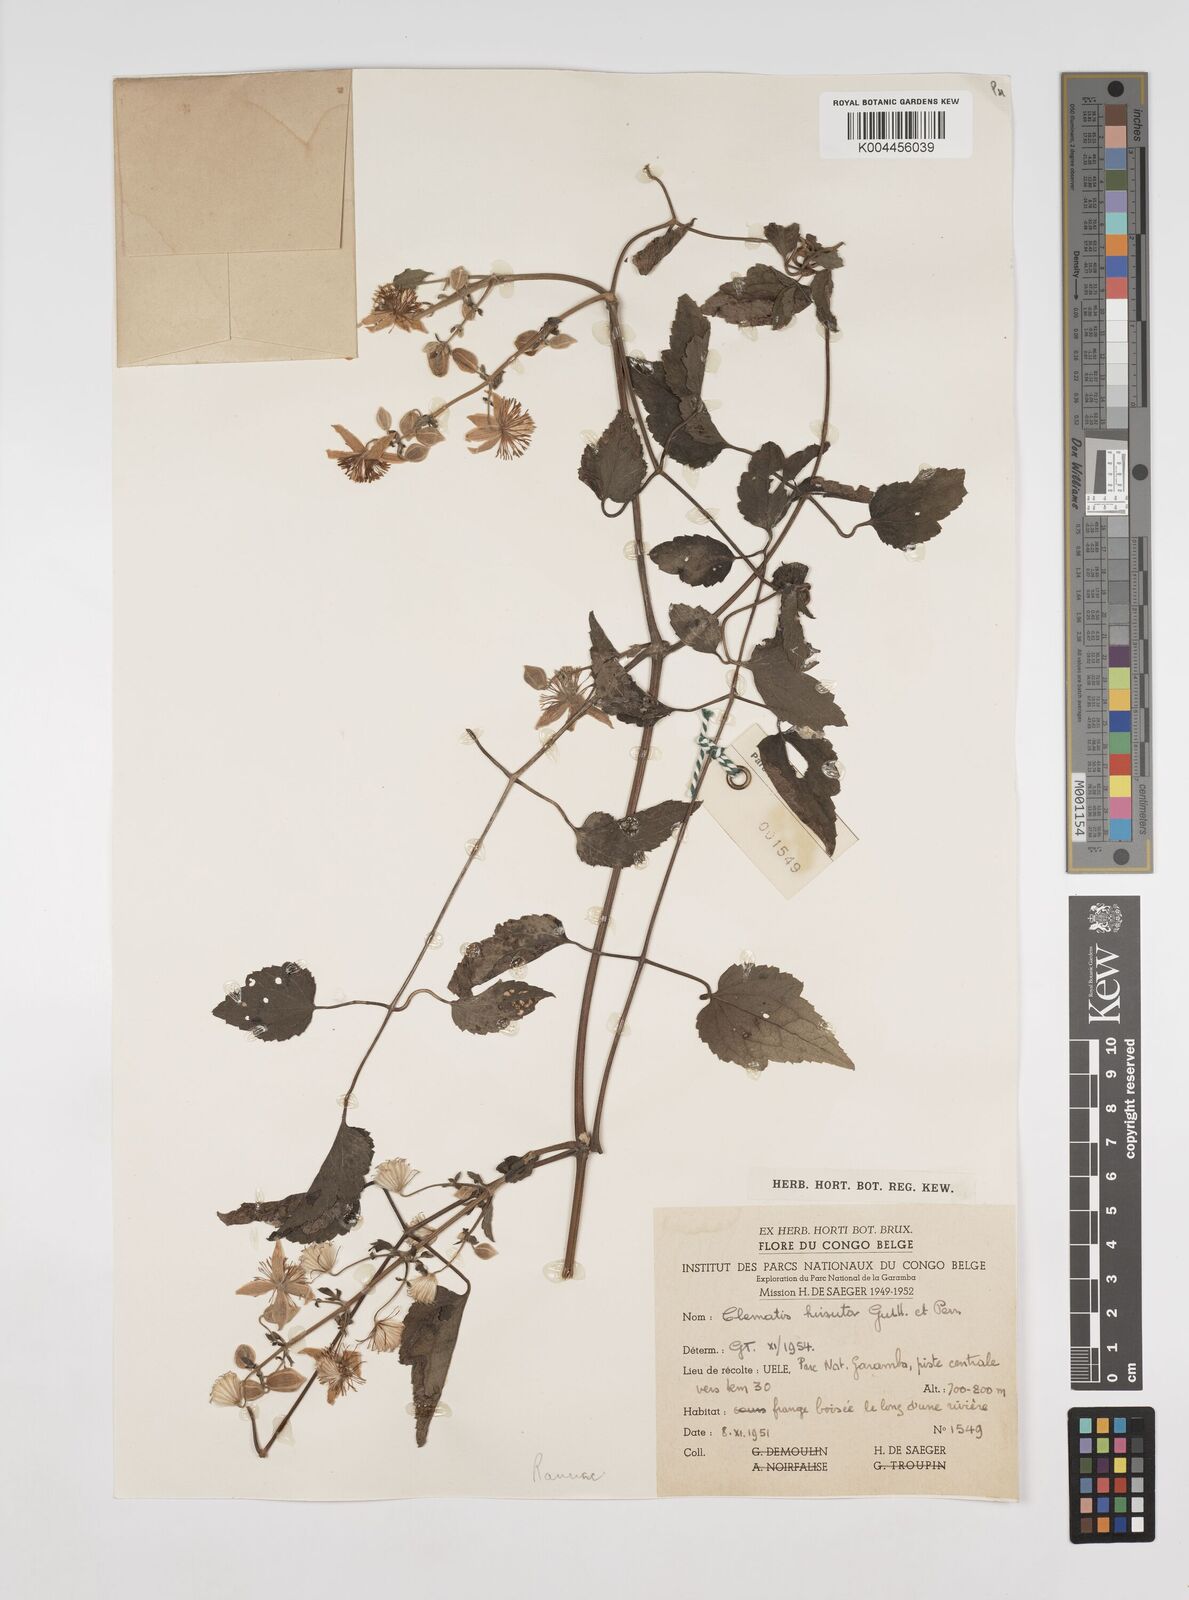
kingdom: Plantae
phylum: Tracheophyta
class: Magnoliopsida
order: Ranunculales
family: Ranunculaceae
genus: Clematis
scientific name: Clematis hirsuta
